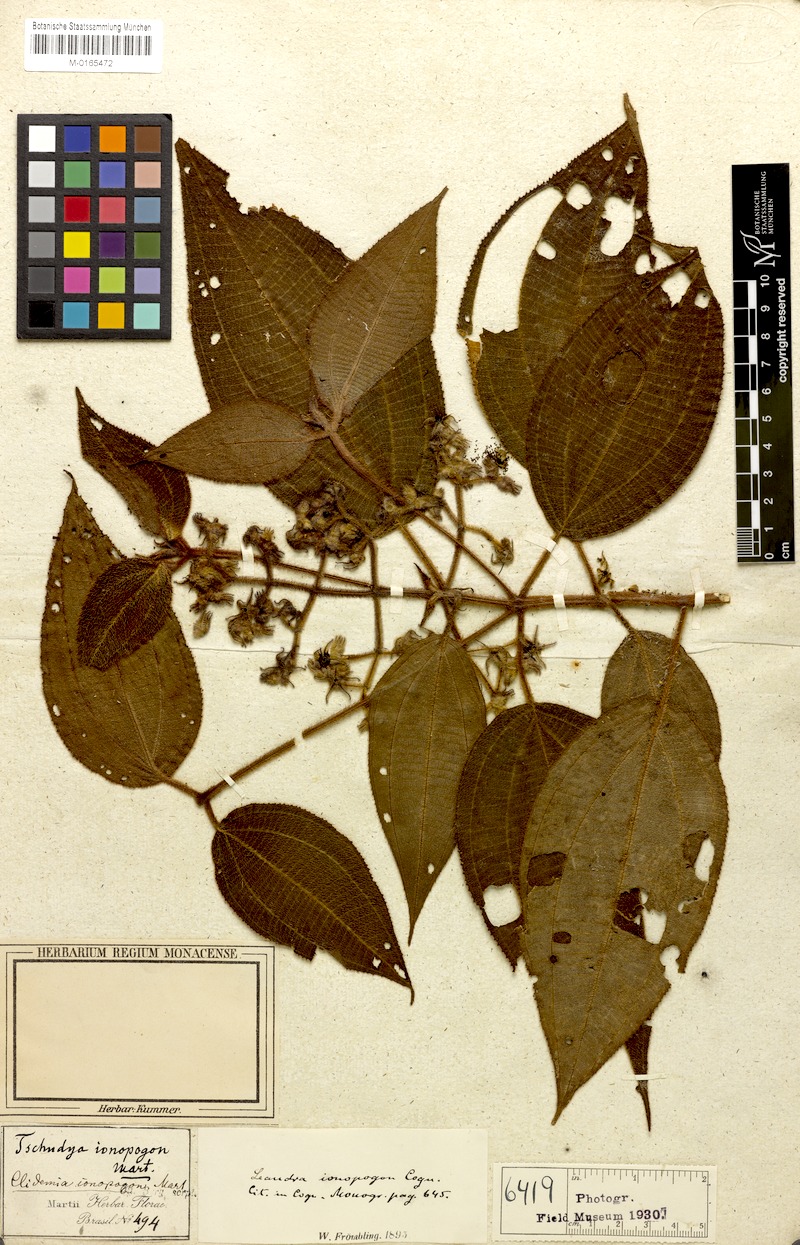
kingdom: Plantae
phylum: Tracheophyta
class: Magnoliopsida
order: Myrtales
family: Melastomataceae
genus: Miconia
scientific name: Miconia ionopogon
